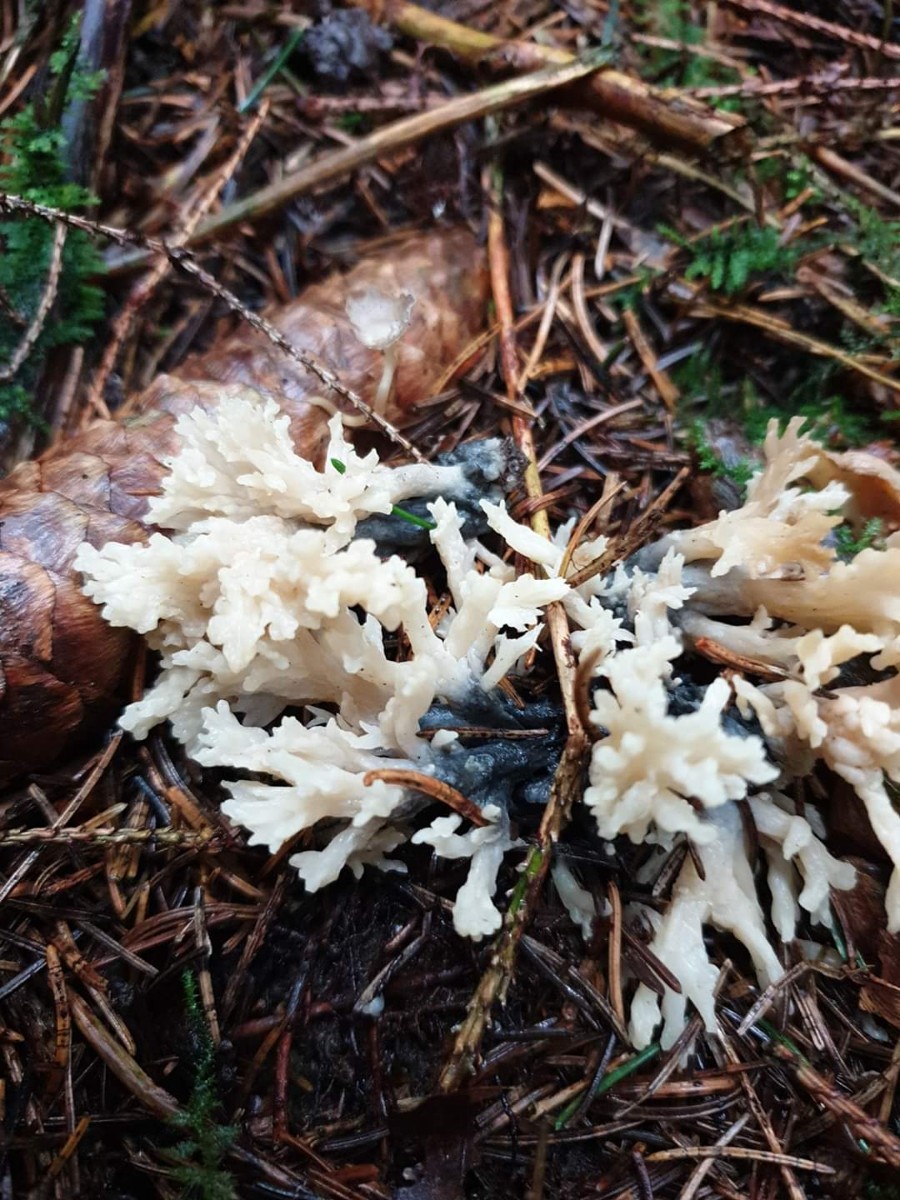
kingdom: Fungi
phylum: Ascomycota
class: Sordariomycetes
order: Sordariales
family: Helminthosphaeriaceae
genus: Helminthosphaeria
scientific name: Helminthosphaeria clavariarum
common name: trold-svampesnyltekerne
